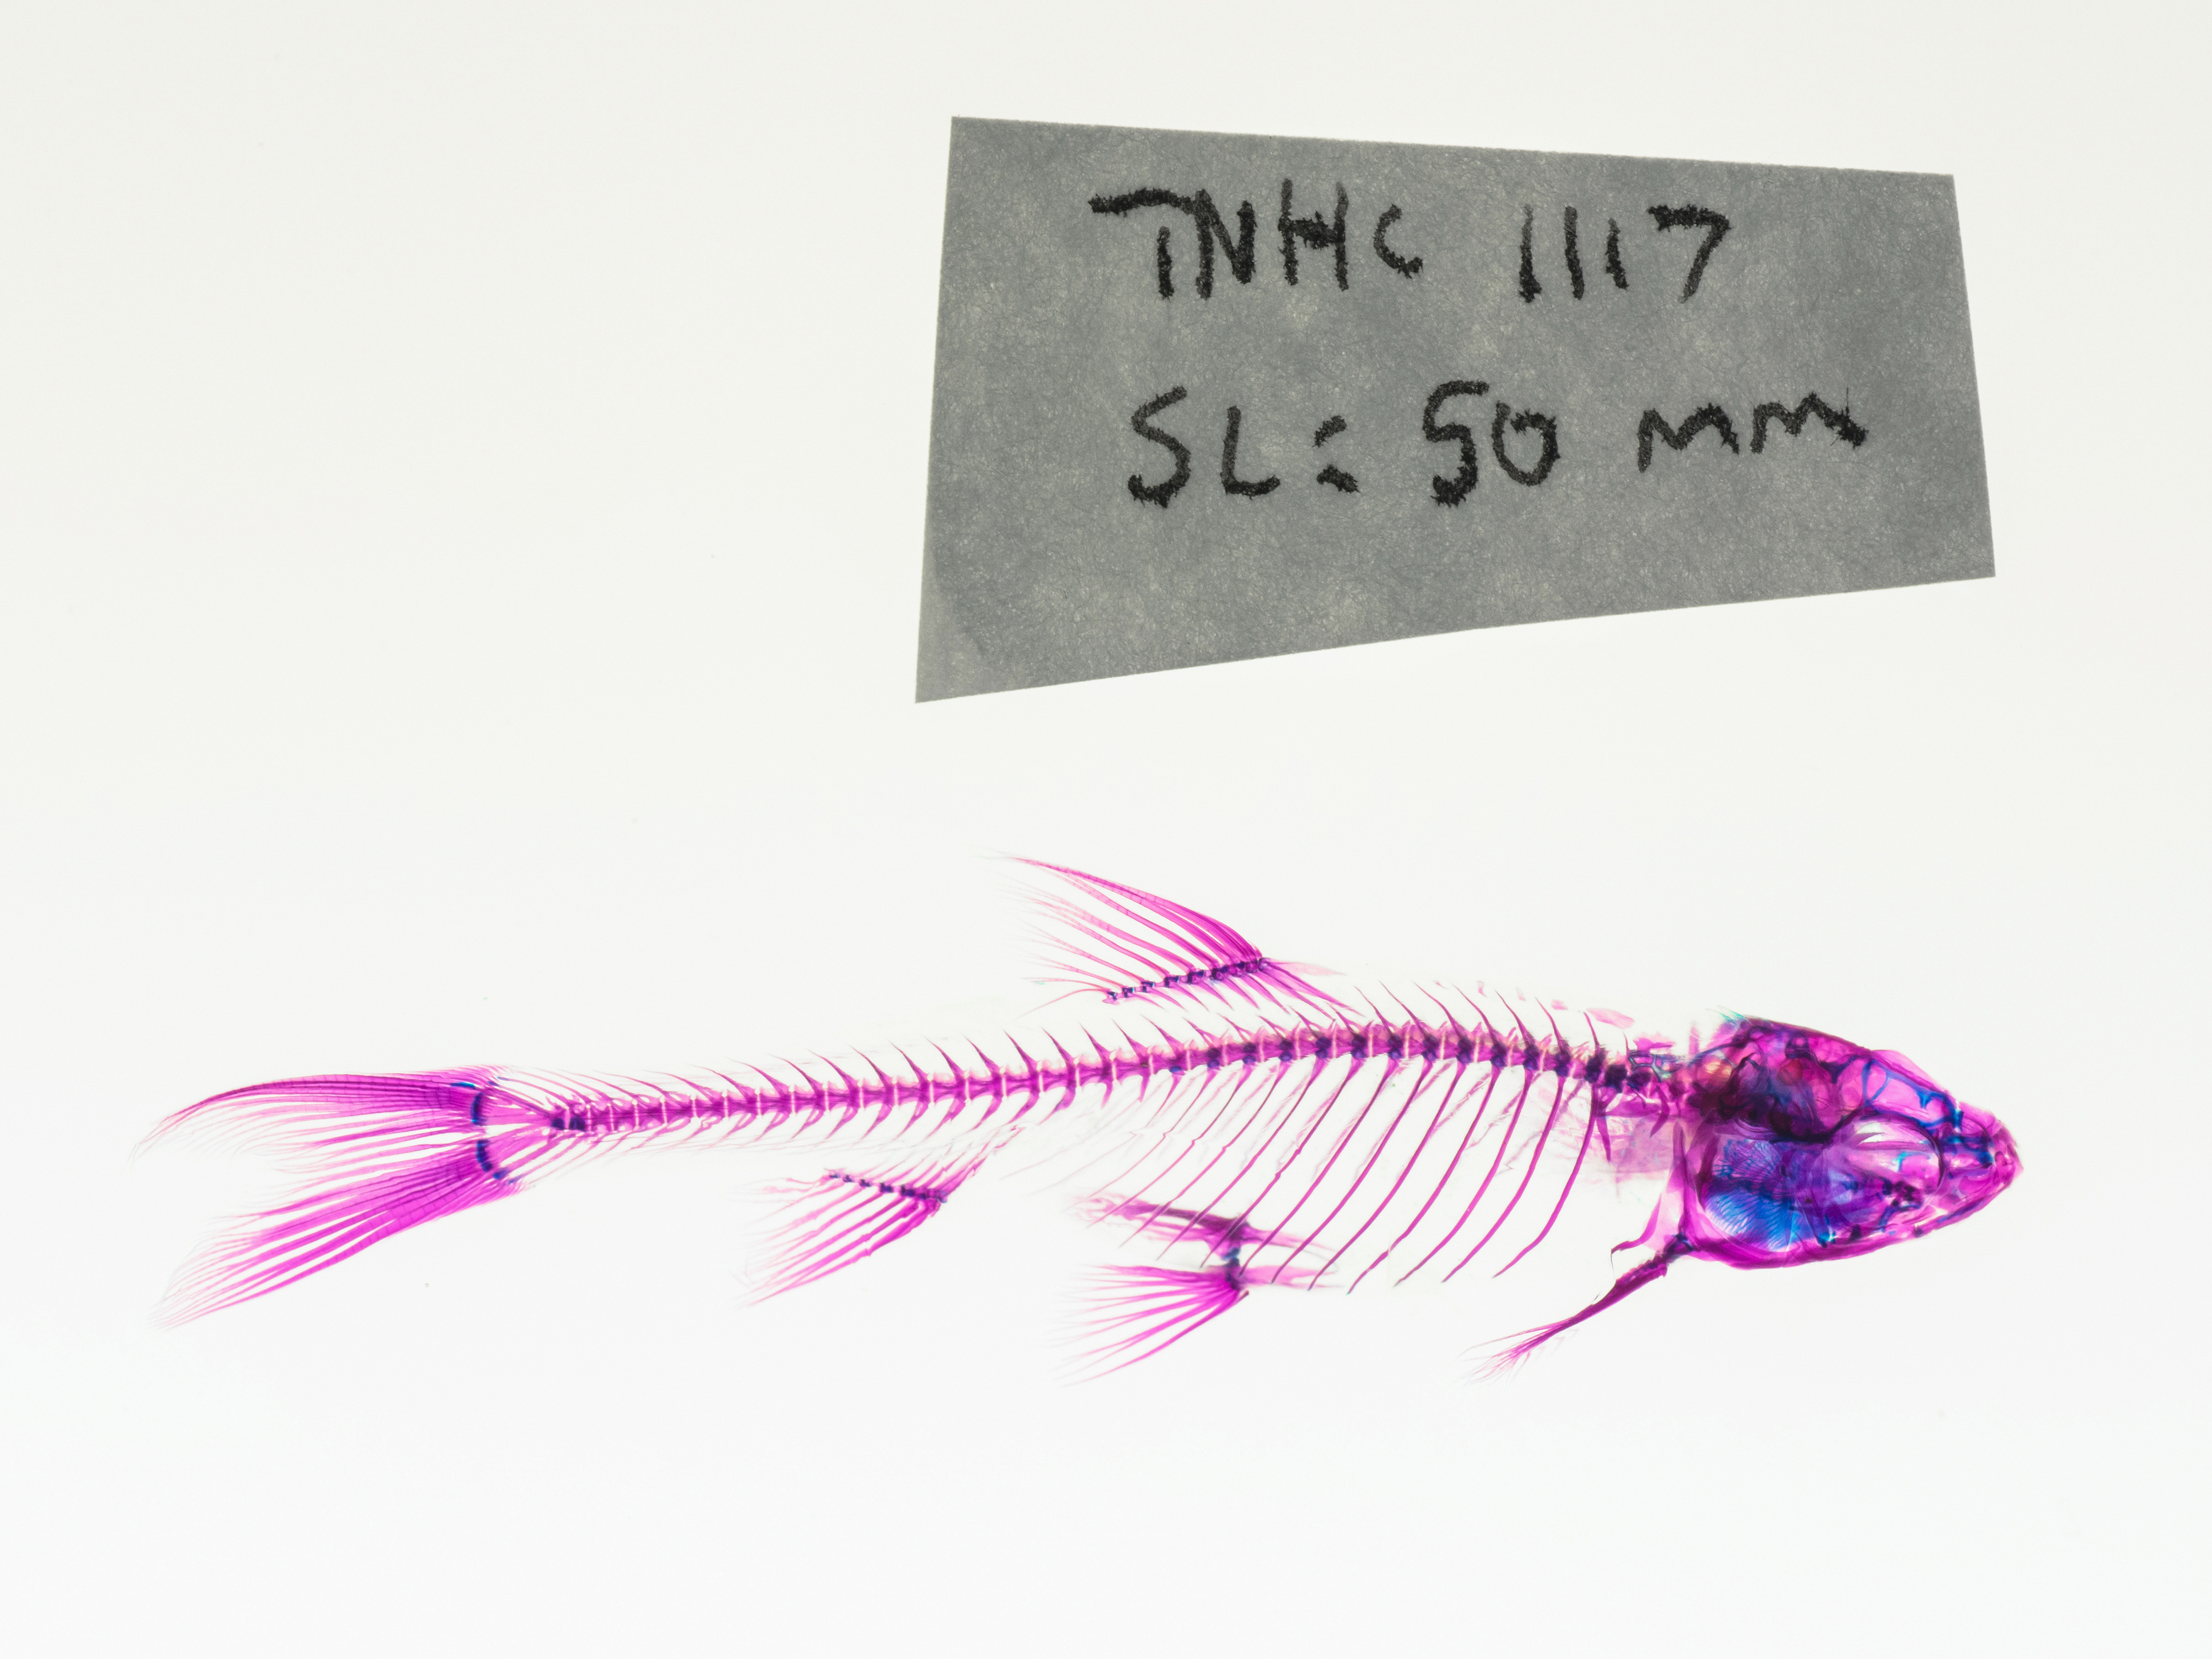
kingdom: Animalia
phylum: Chordata
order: Cypriniformes
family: Cyprinidae
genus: Notropis
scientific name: Notropis atrocaudalis
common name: Blackspot shiner
